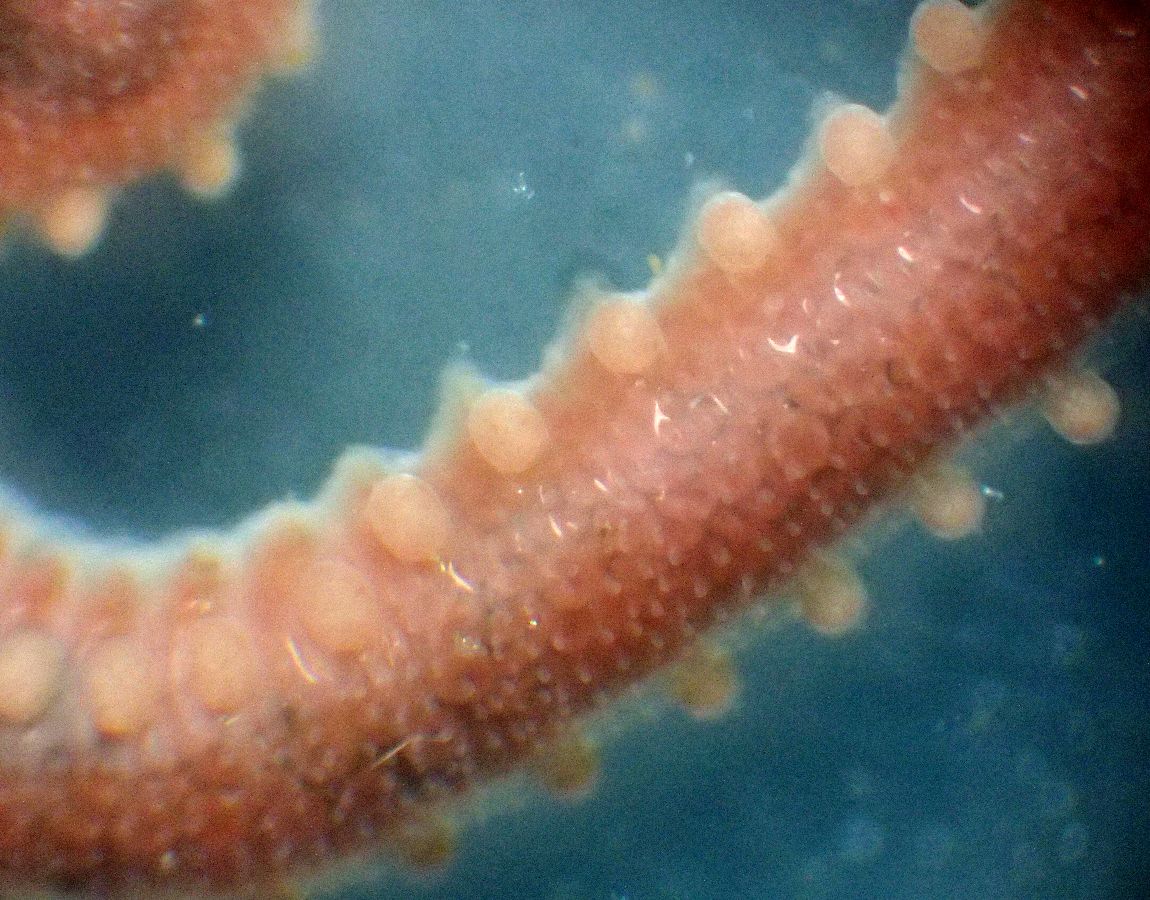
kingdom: Animalia
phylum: Annelida
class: Polychaeta
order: Phyllodocida
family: Sphaerodoridae
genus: Sphaerodorum
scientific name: Sphaerodorum gracilis
